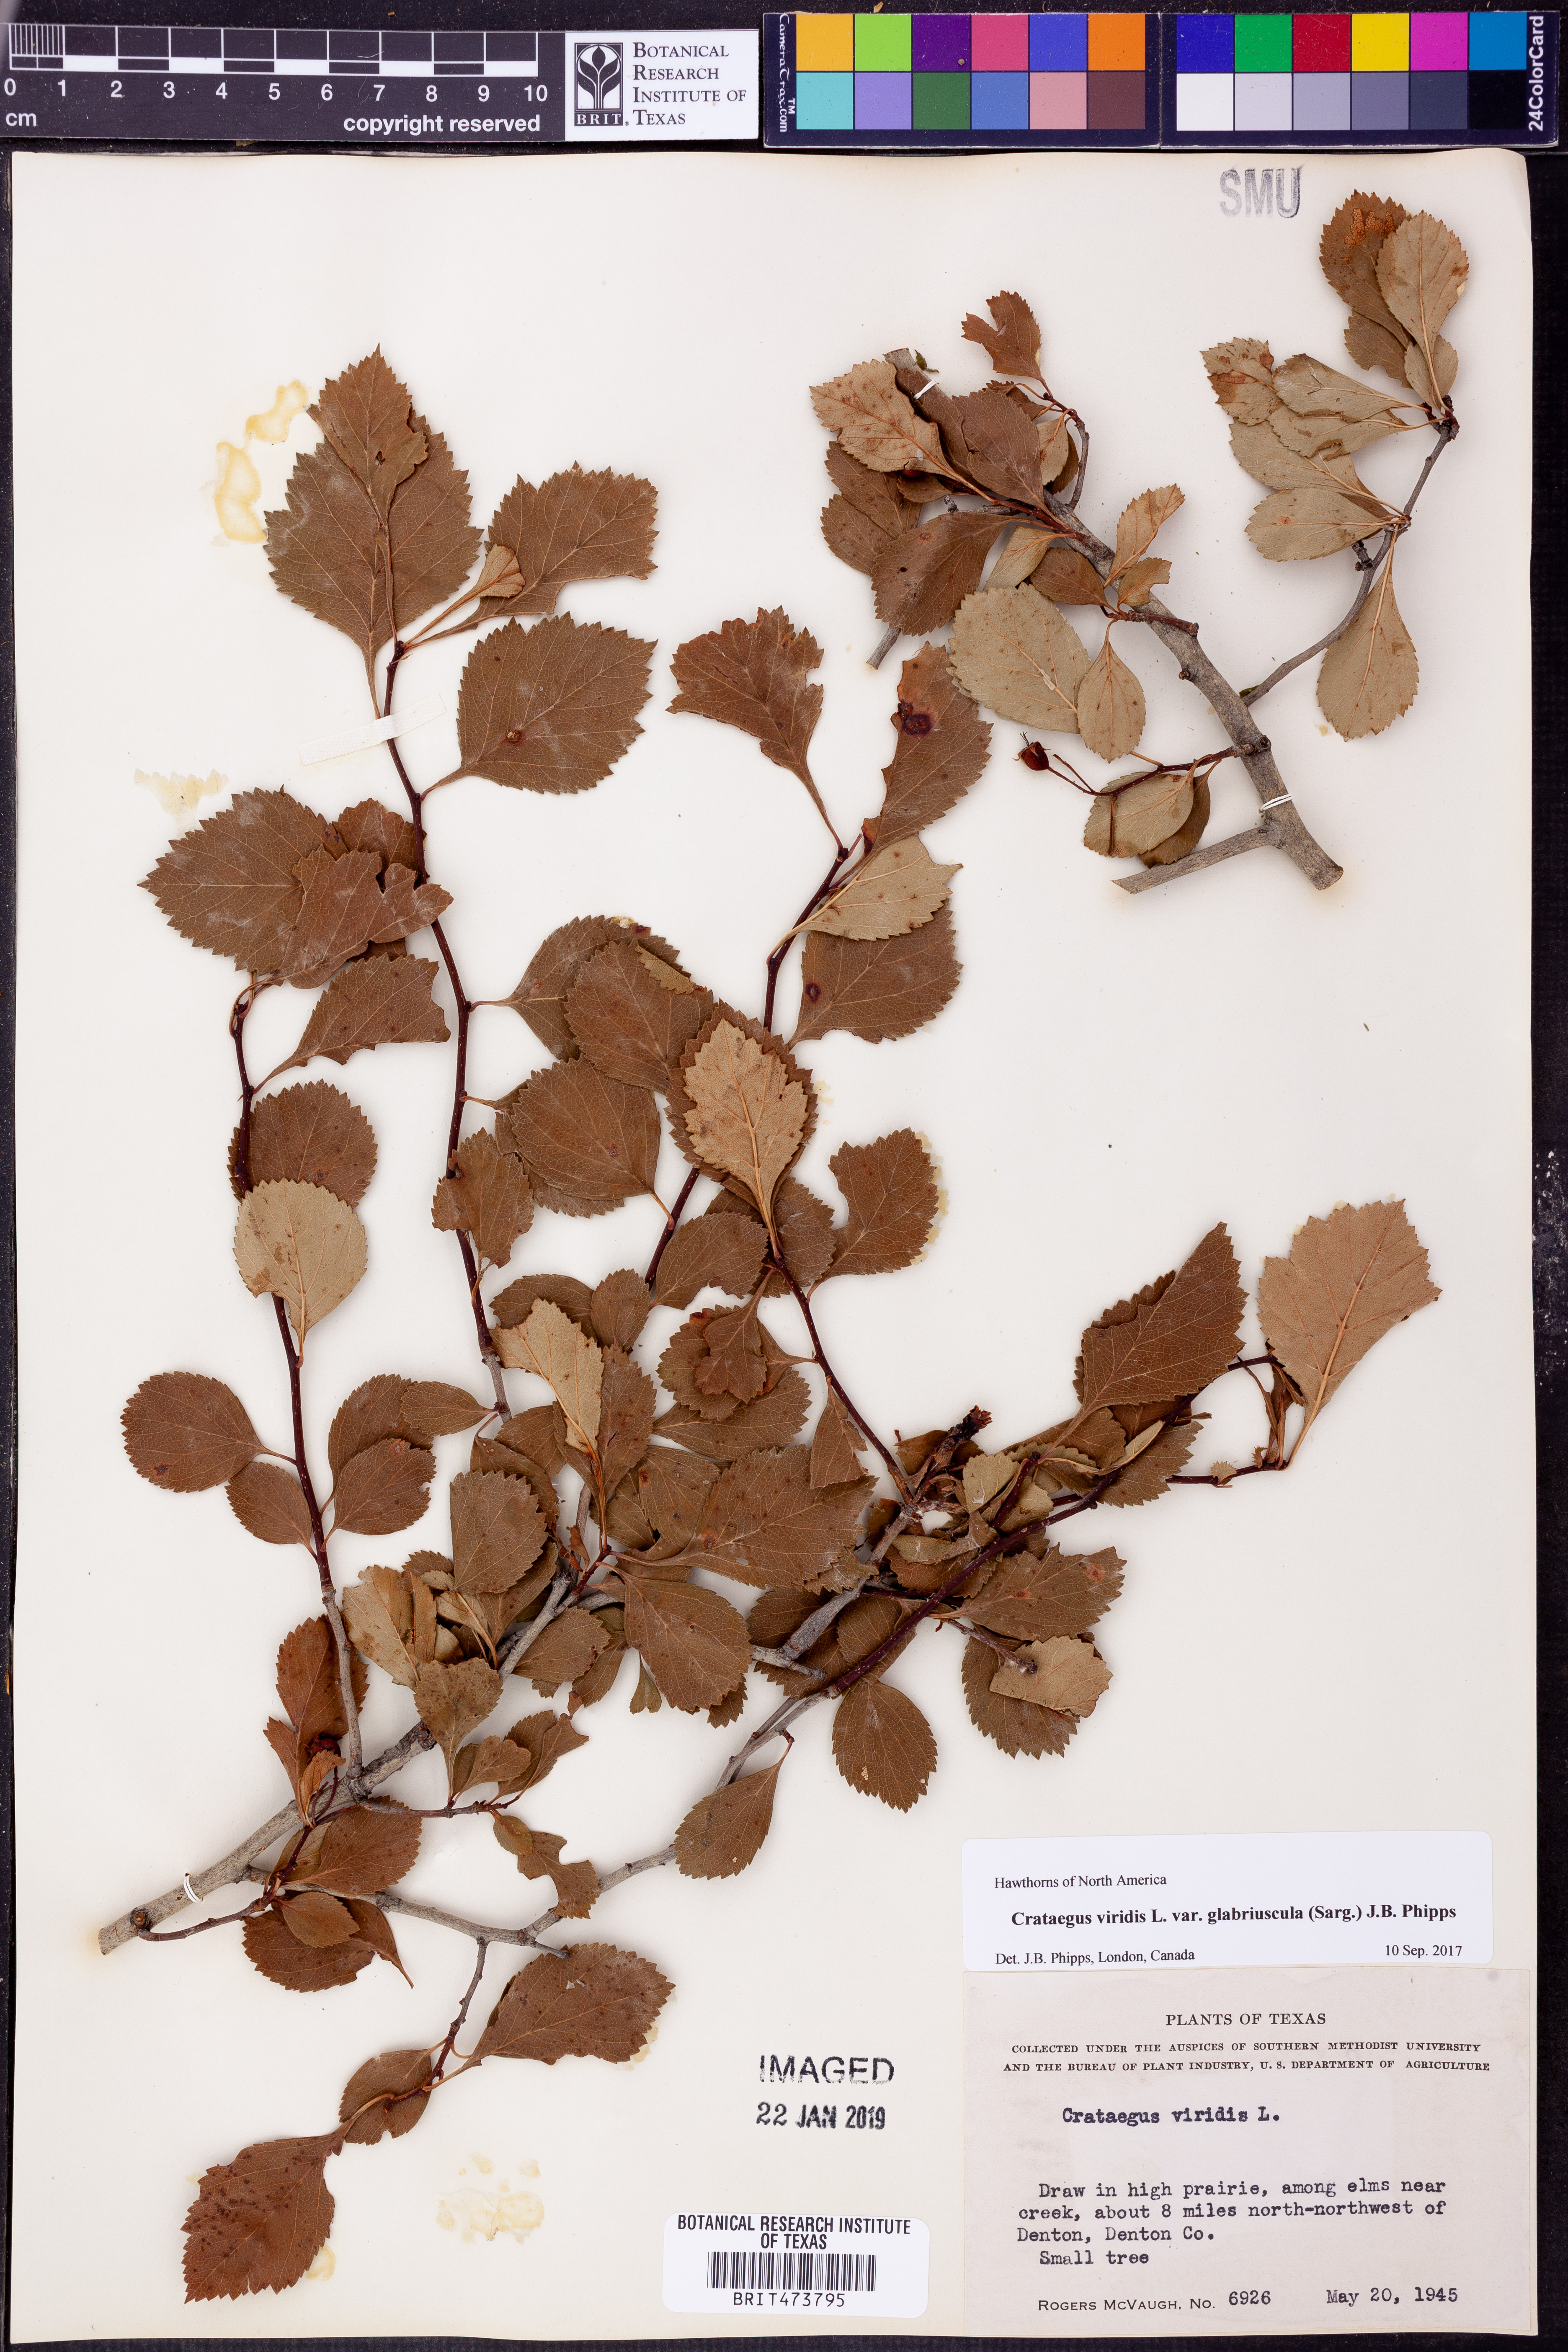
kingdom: Plantae
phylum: Tracheophyta
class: Magnoliopsida
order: Rosales
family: Rosaceae
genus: Crataegus
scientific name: Crataegus viridis
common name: Southernthorn
